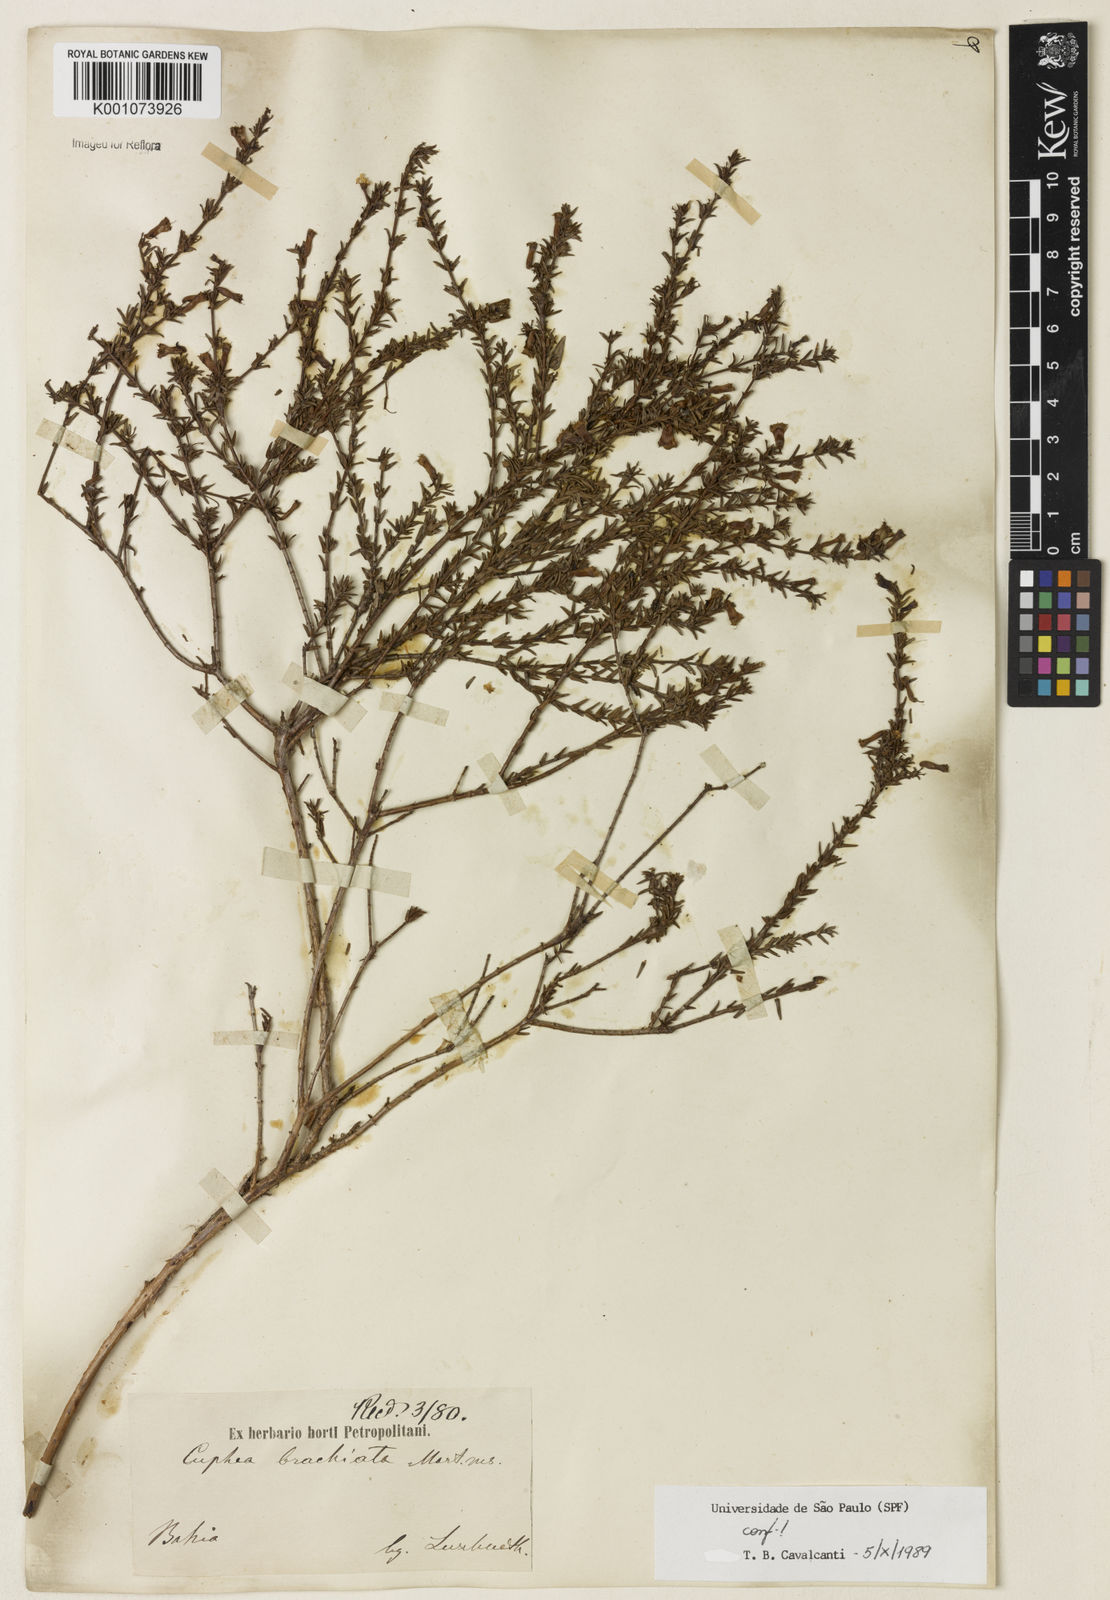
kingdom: Plantae
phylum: Tracheophyta
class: Magnoliopsida
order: Myrtales
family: Lythraceae
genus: Cuphea
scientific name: Cuphea brachiata
